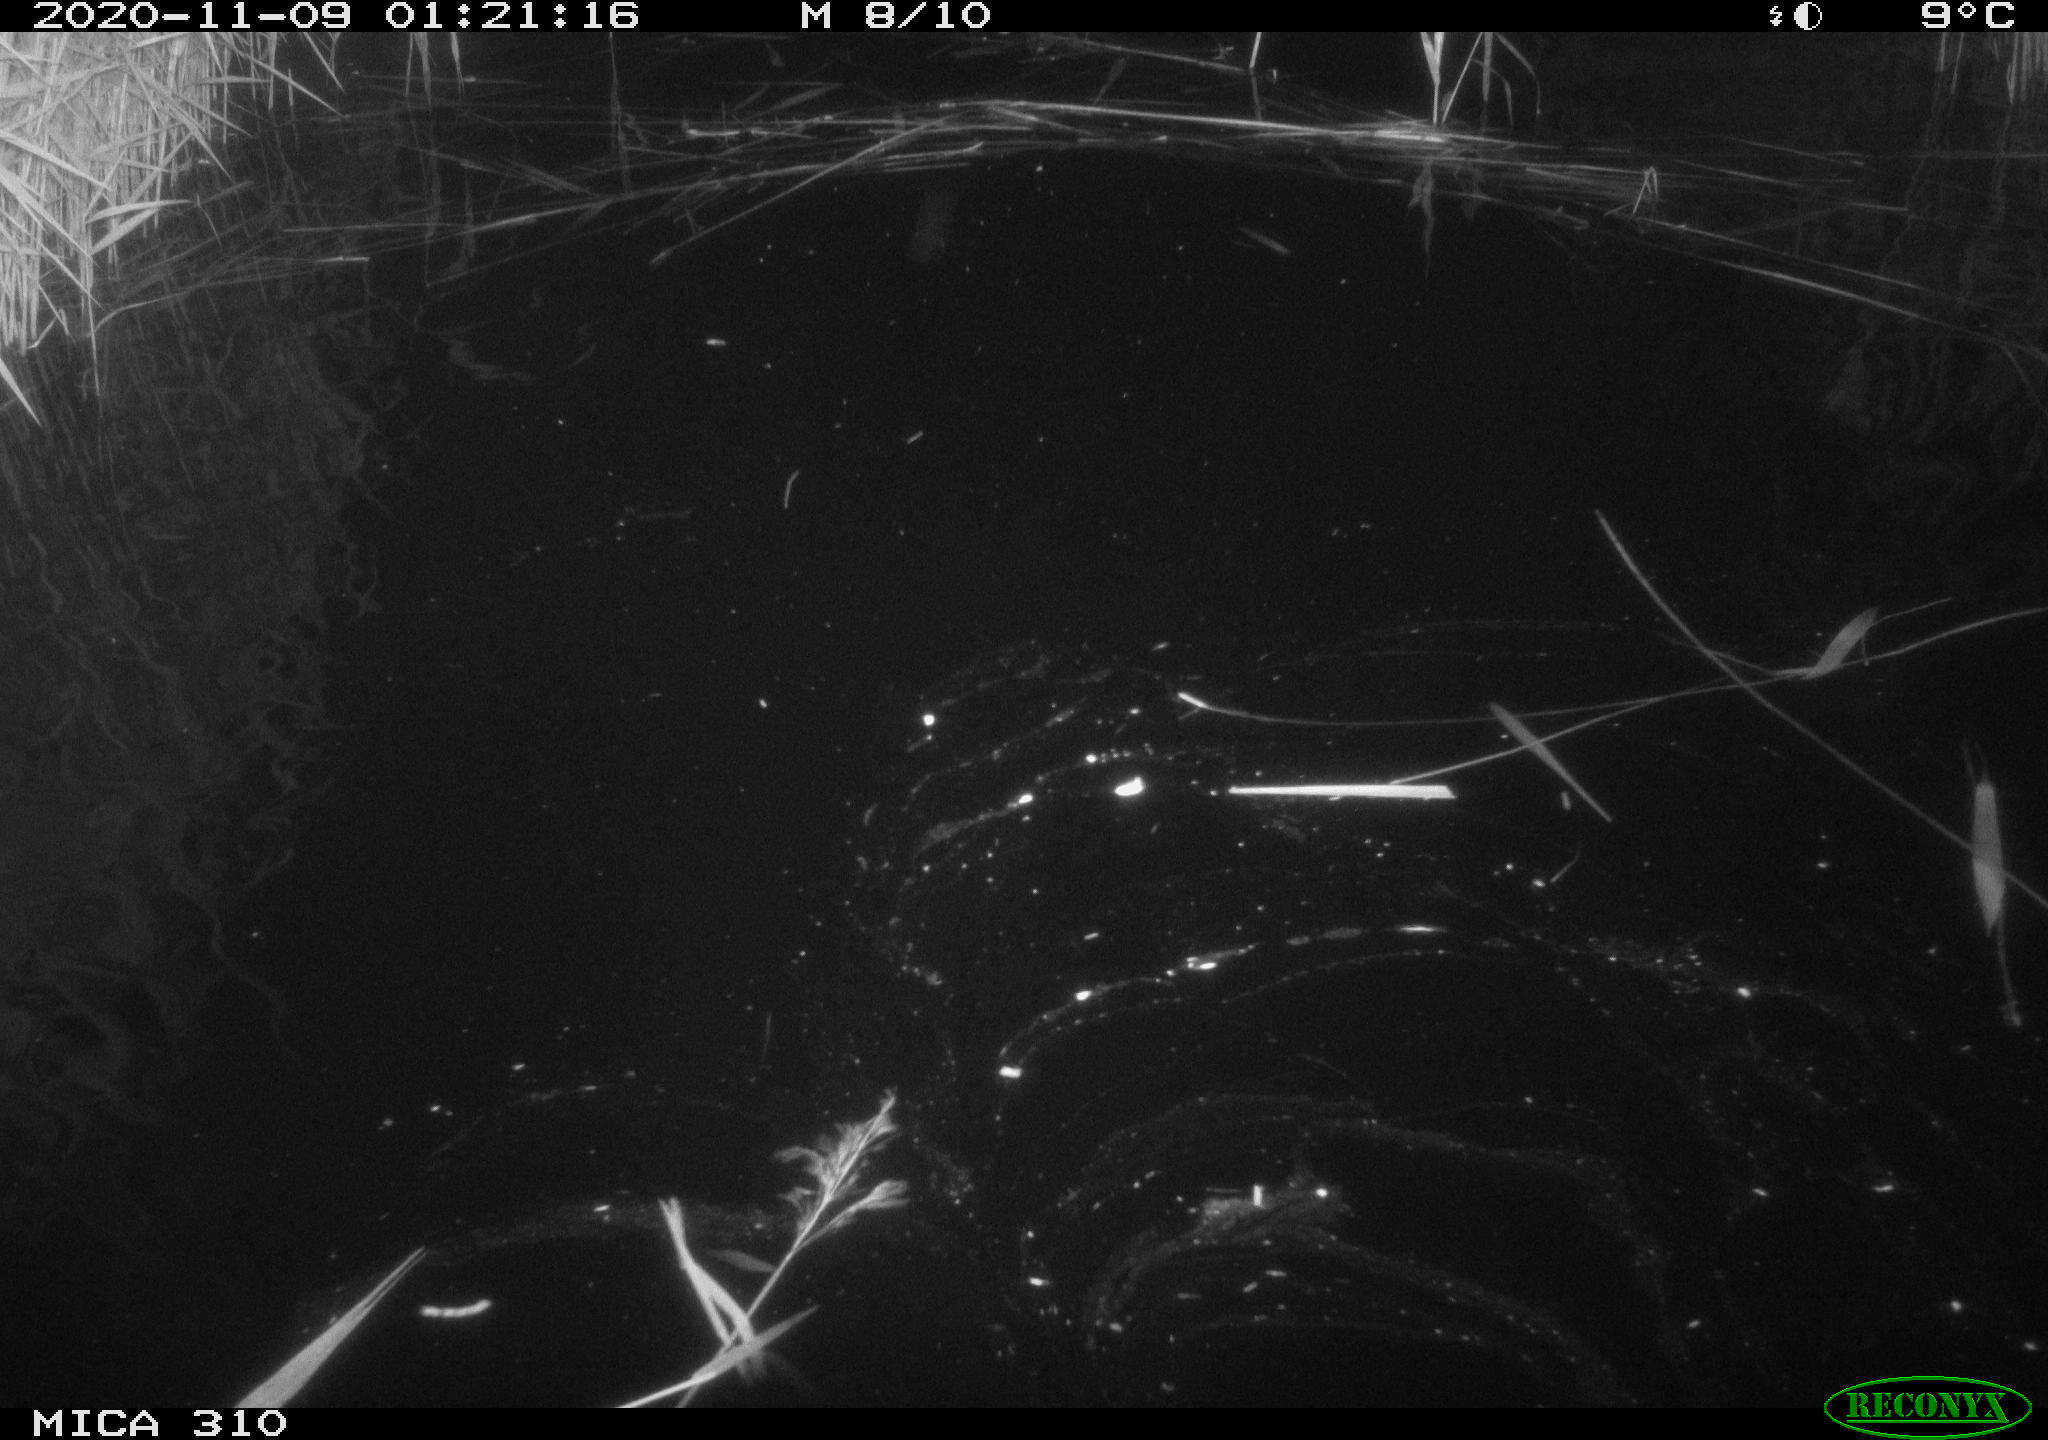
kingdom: Animalia
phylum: Chordata
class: Mammalia
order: Rodentia
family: Cricetidae
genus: Ondatra
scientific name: Ondatra zibethicus
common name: Muskrat
